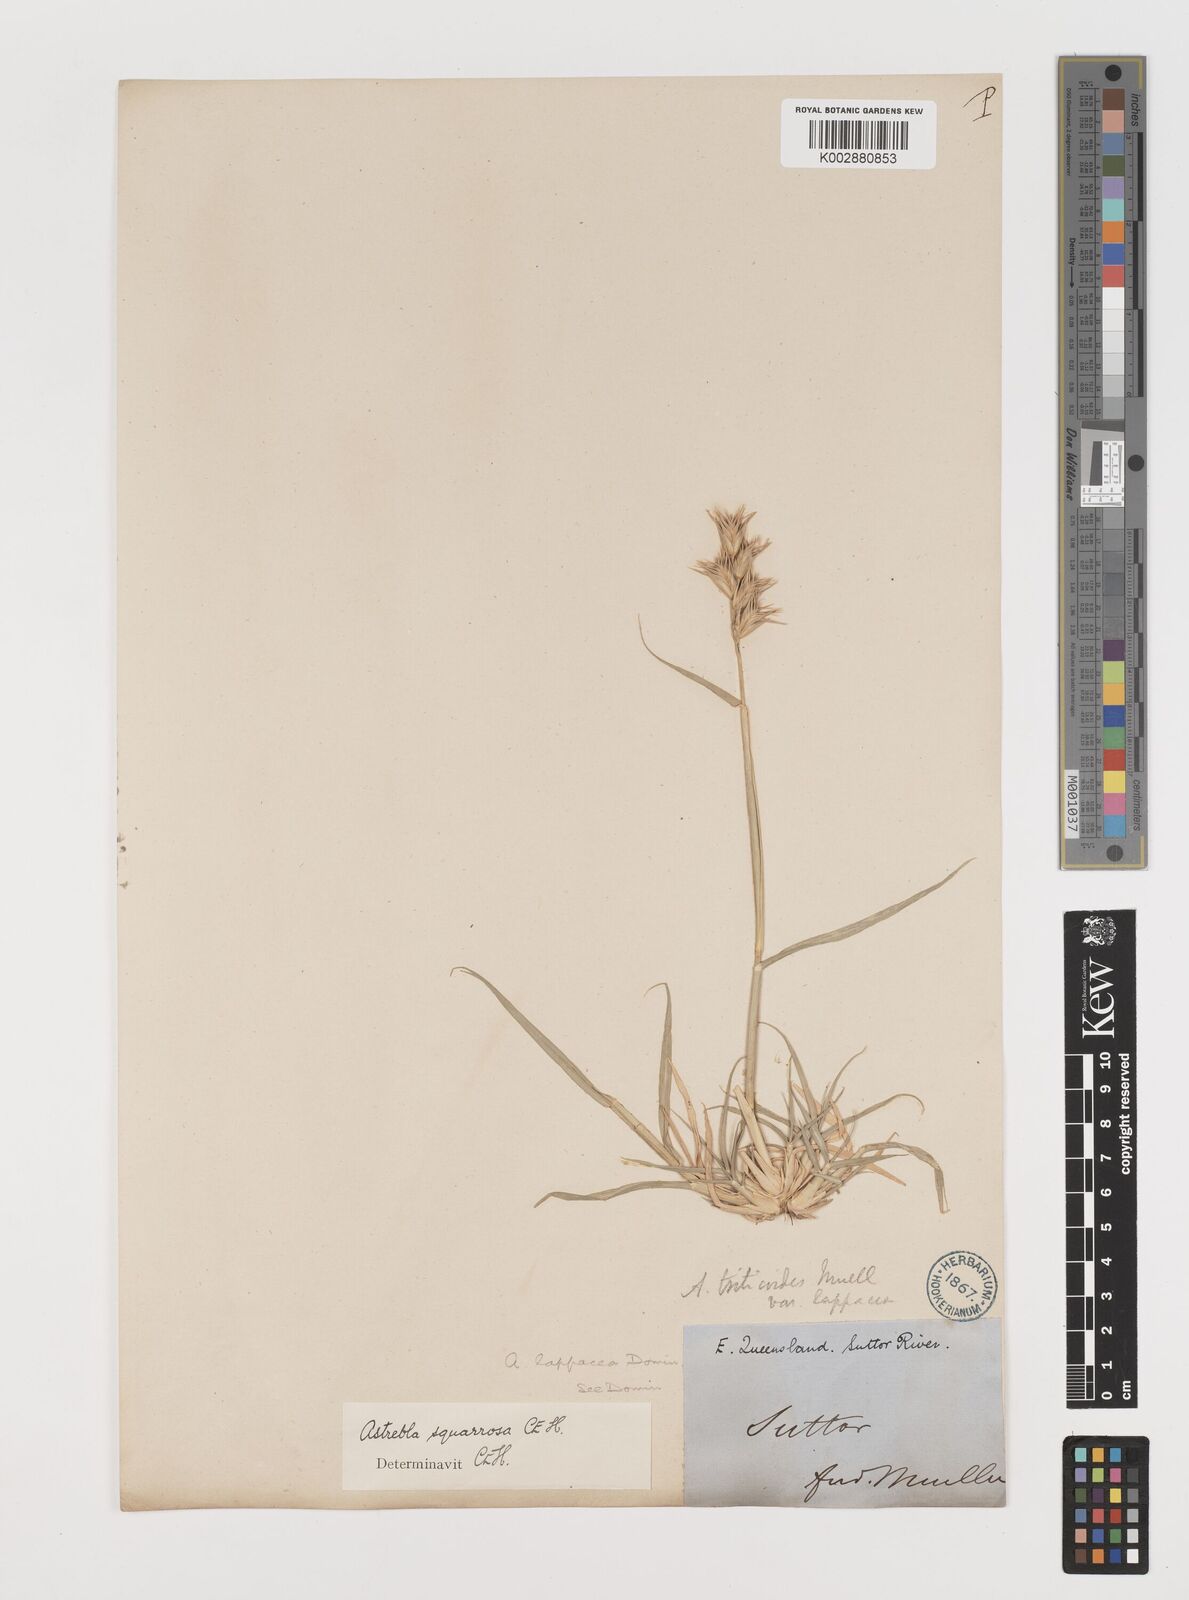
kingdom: Plantae
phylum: Tracheophyta
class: Liliopsida
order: Poales
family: Poaceae
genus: Astrebla
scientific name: Astrebla squarrosa
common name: Wheat-ear mitchell grass
